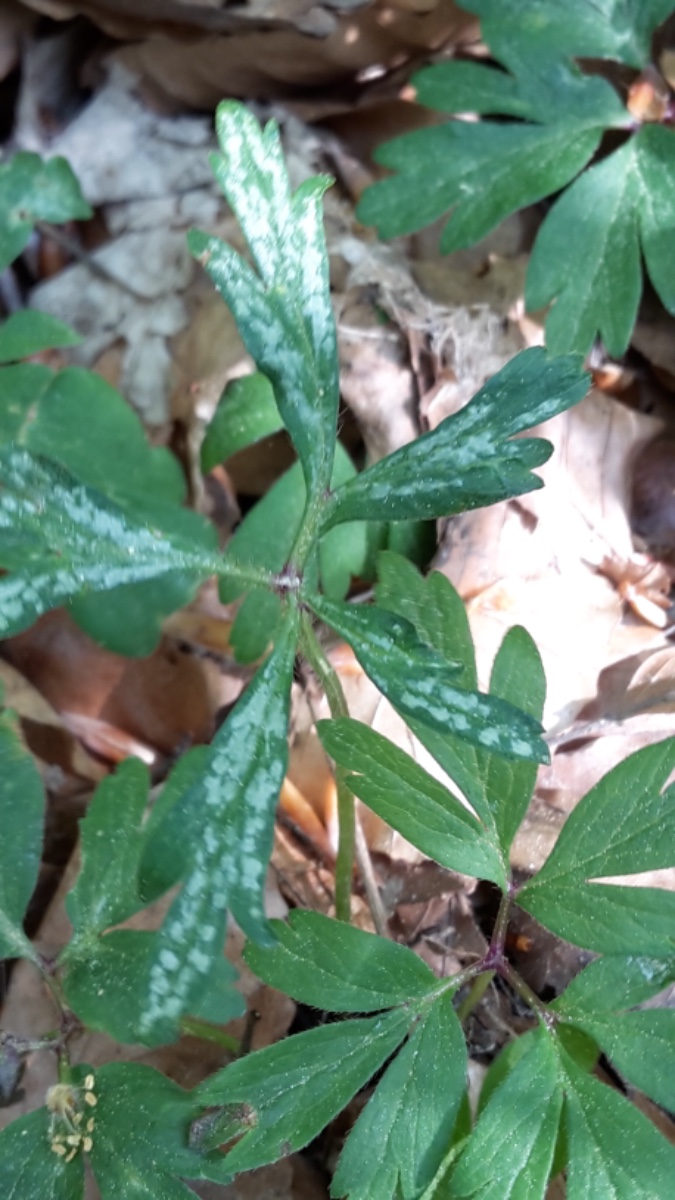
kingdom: Fungi
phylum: Basidiomycota
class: Pucciniomycetes
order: Pucciniales
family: Ochropsoraceae
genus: Ochropsora
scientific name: Ochropsora ariae
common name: anemone-okkerpletrust
